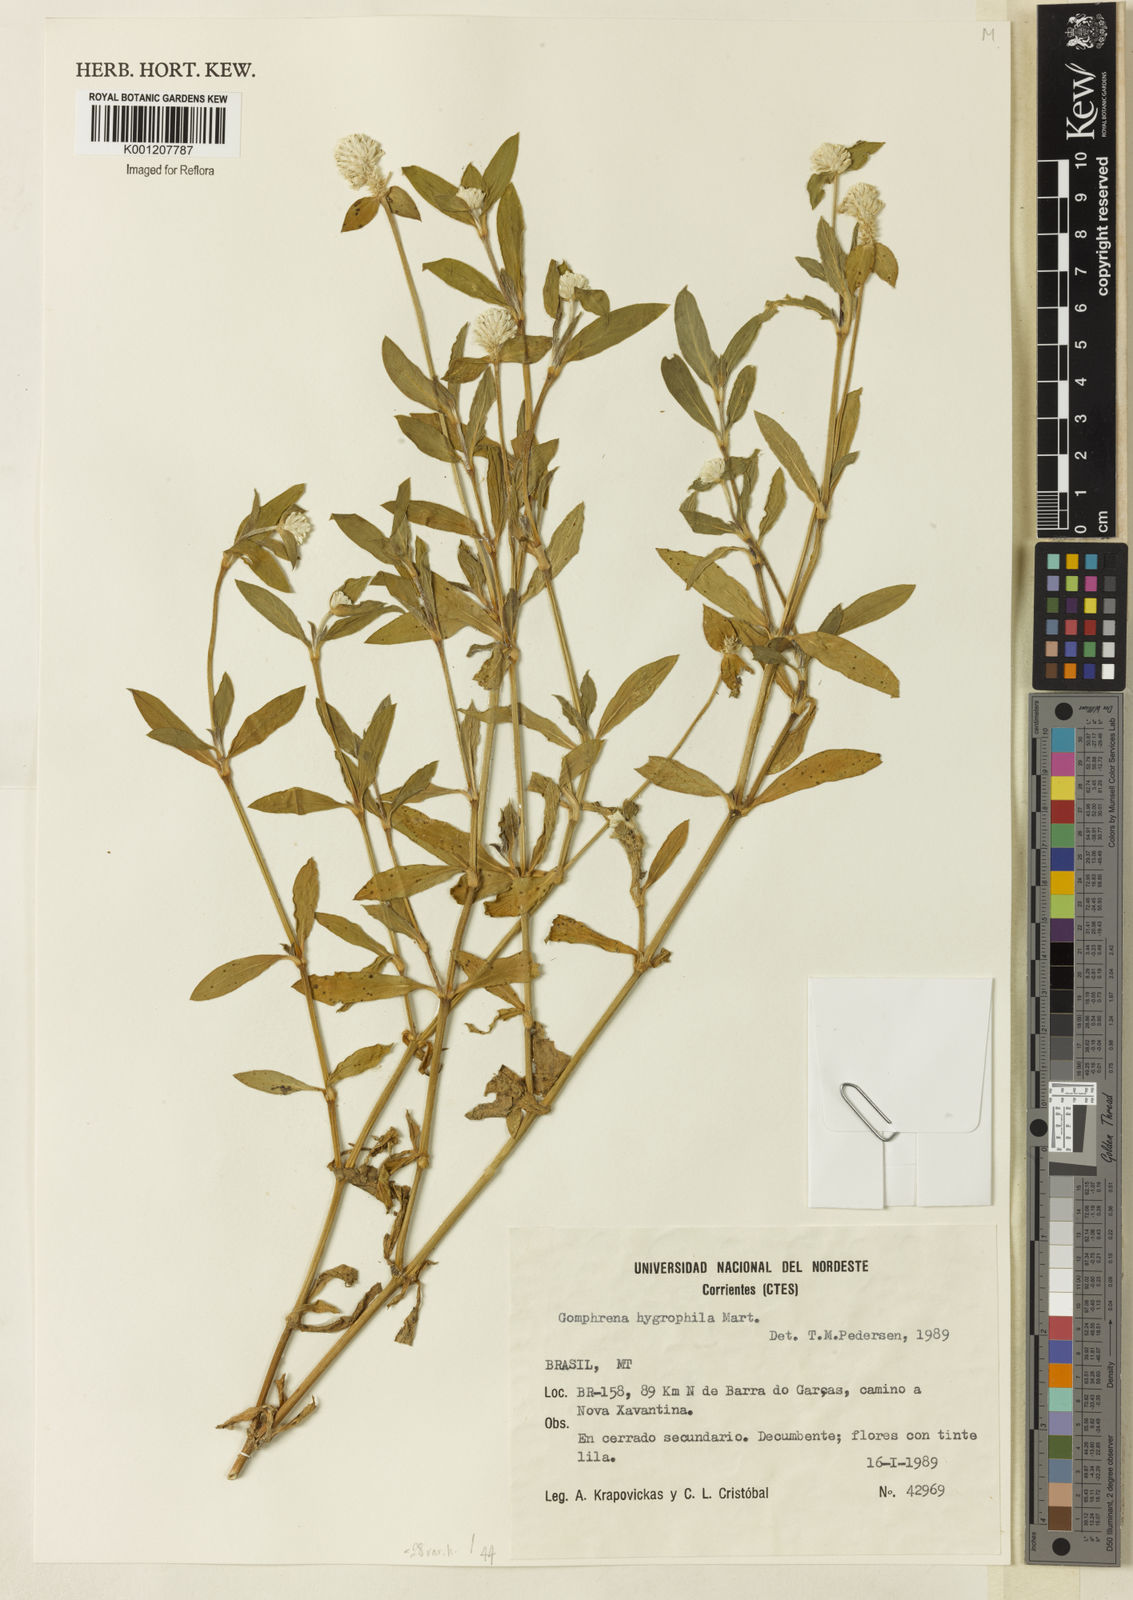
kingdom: Plantae
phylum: Tracheophyta
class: Magnoliopsida
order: Caryophyllales
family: Amaranthaceae
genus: Gomphrena
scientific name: Gomphrena desertorum
